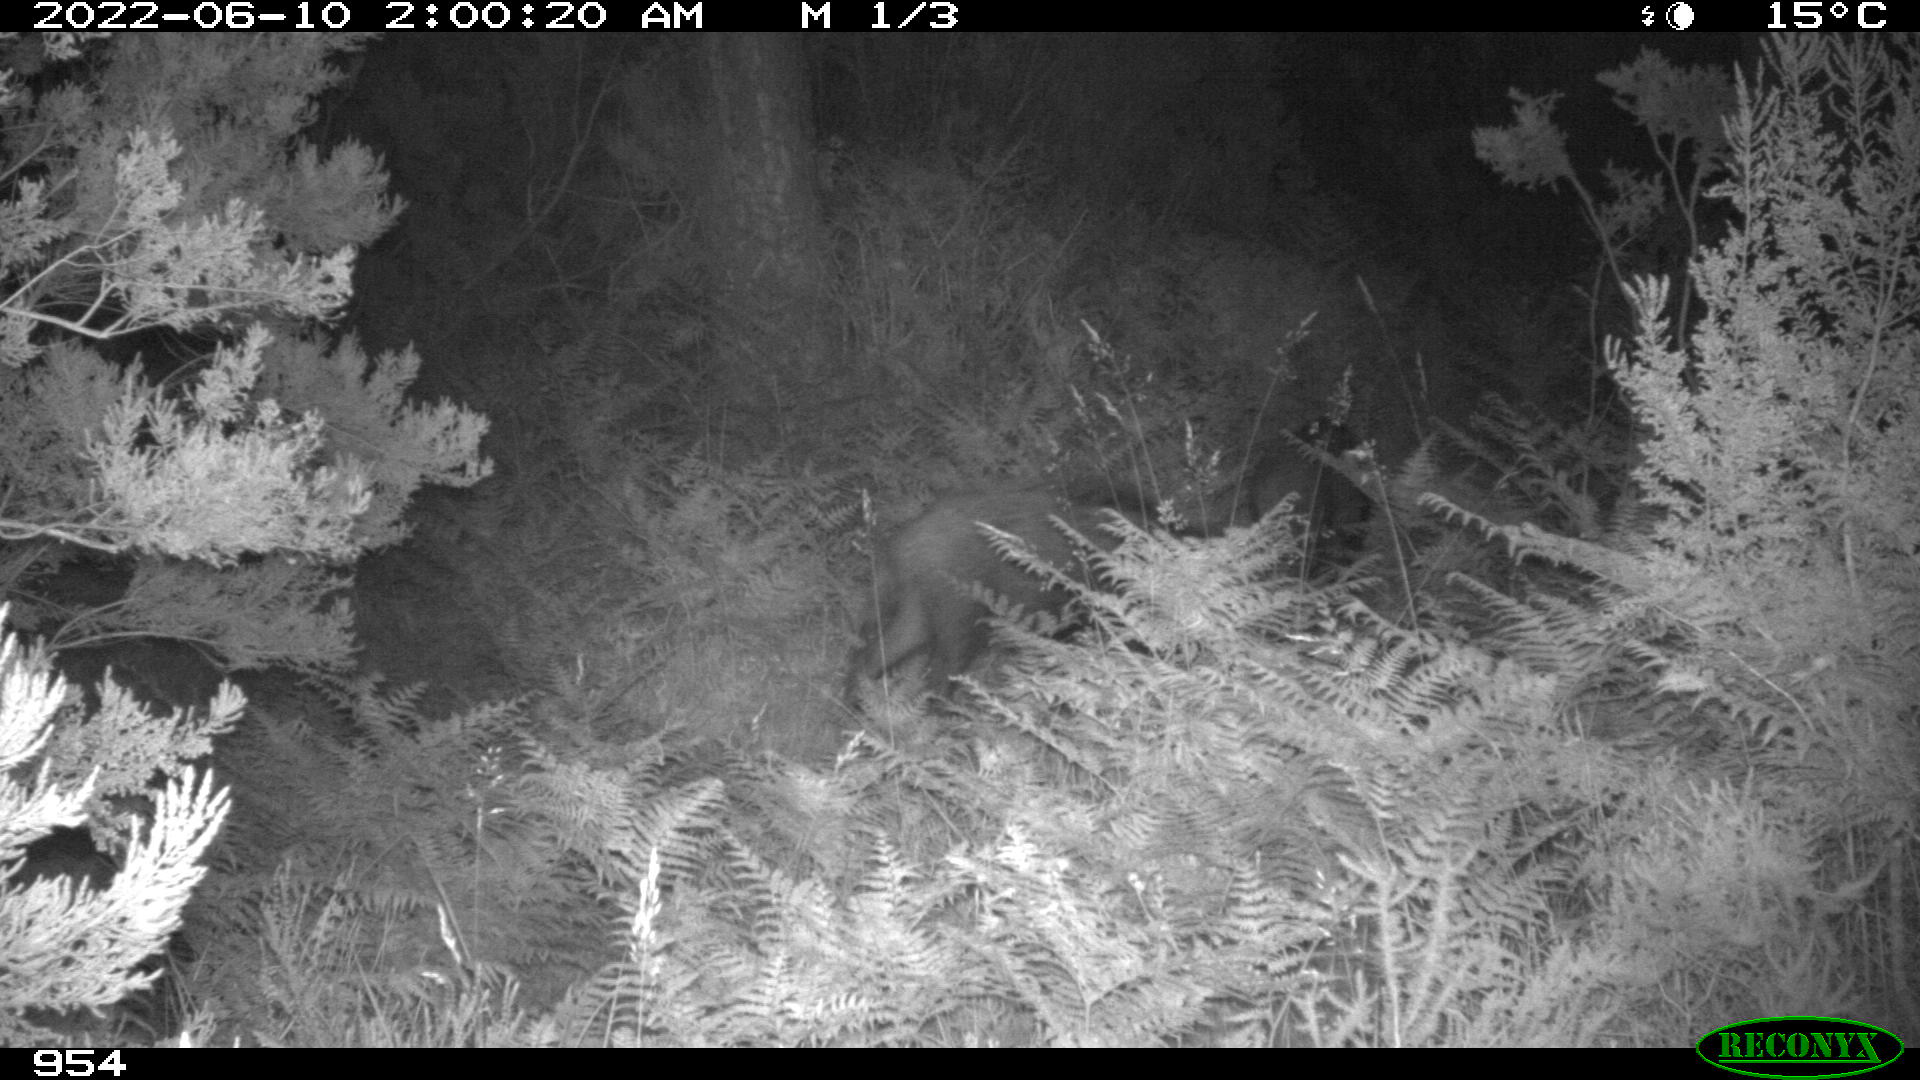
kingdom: Animalia
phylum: Chordata
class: Mammalia
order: Artiodactyla
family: Suidae
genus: Sus
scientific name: Sus scrofa
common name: Wild boar
